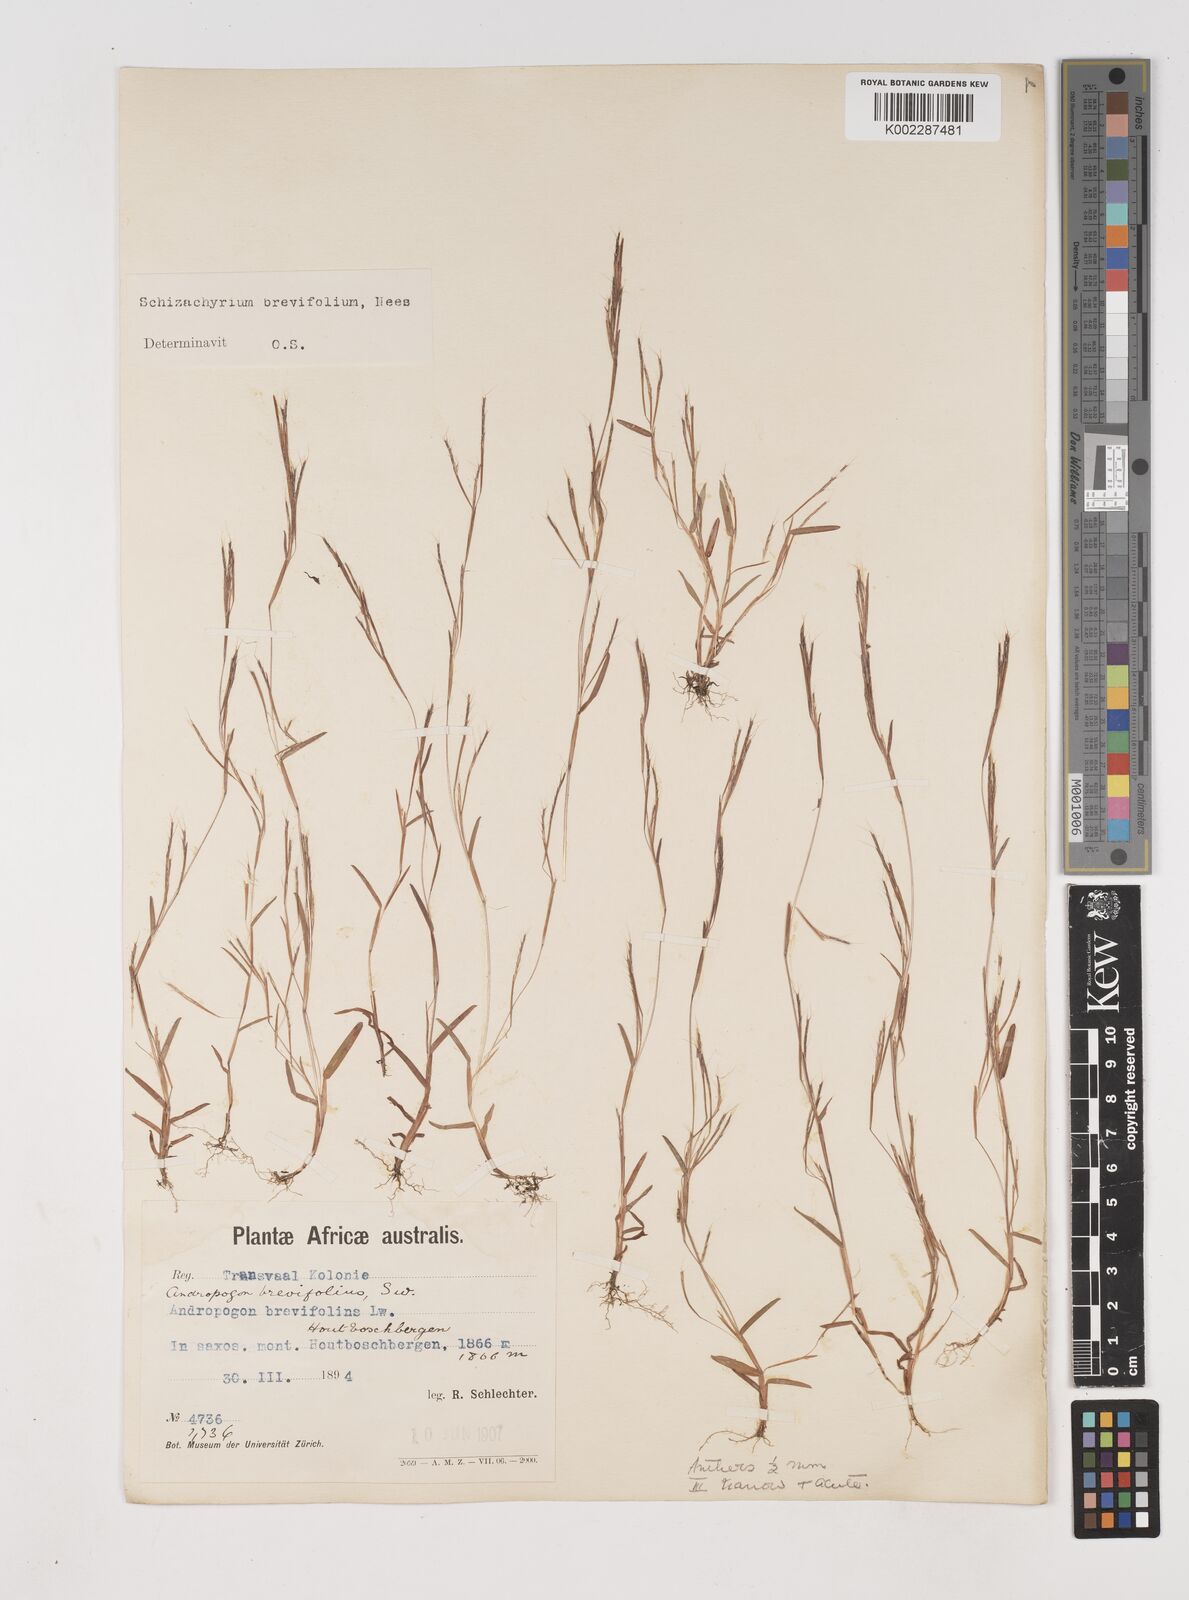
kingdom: Plantae
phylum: Tracheophyta
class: Liliopsida
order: Poales
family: Poaceae
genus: Schizachyrium
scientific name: Schizachyrium brevifolium
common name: Serillo dulce
